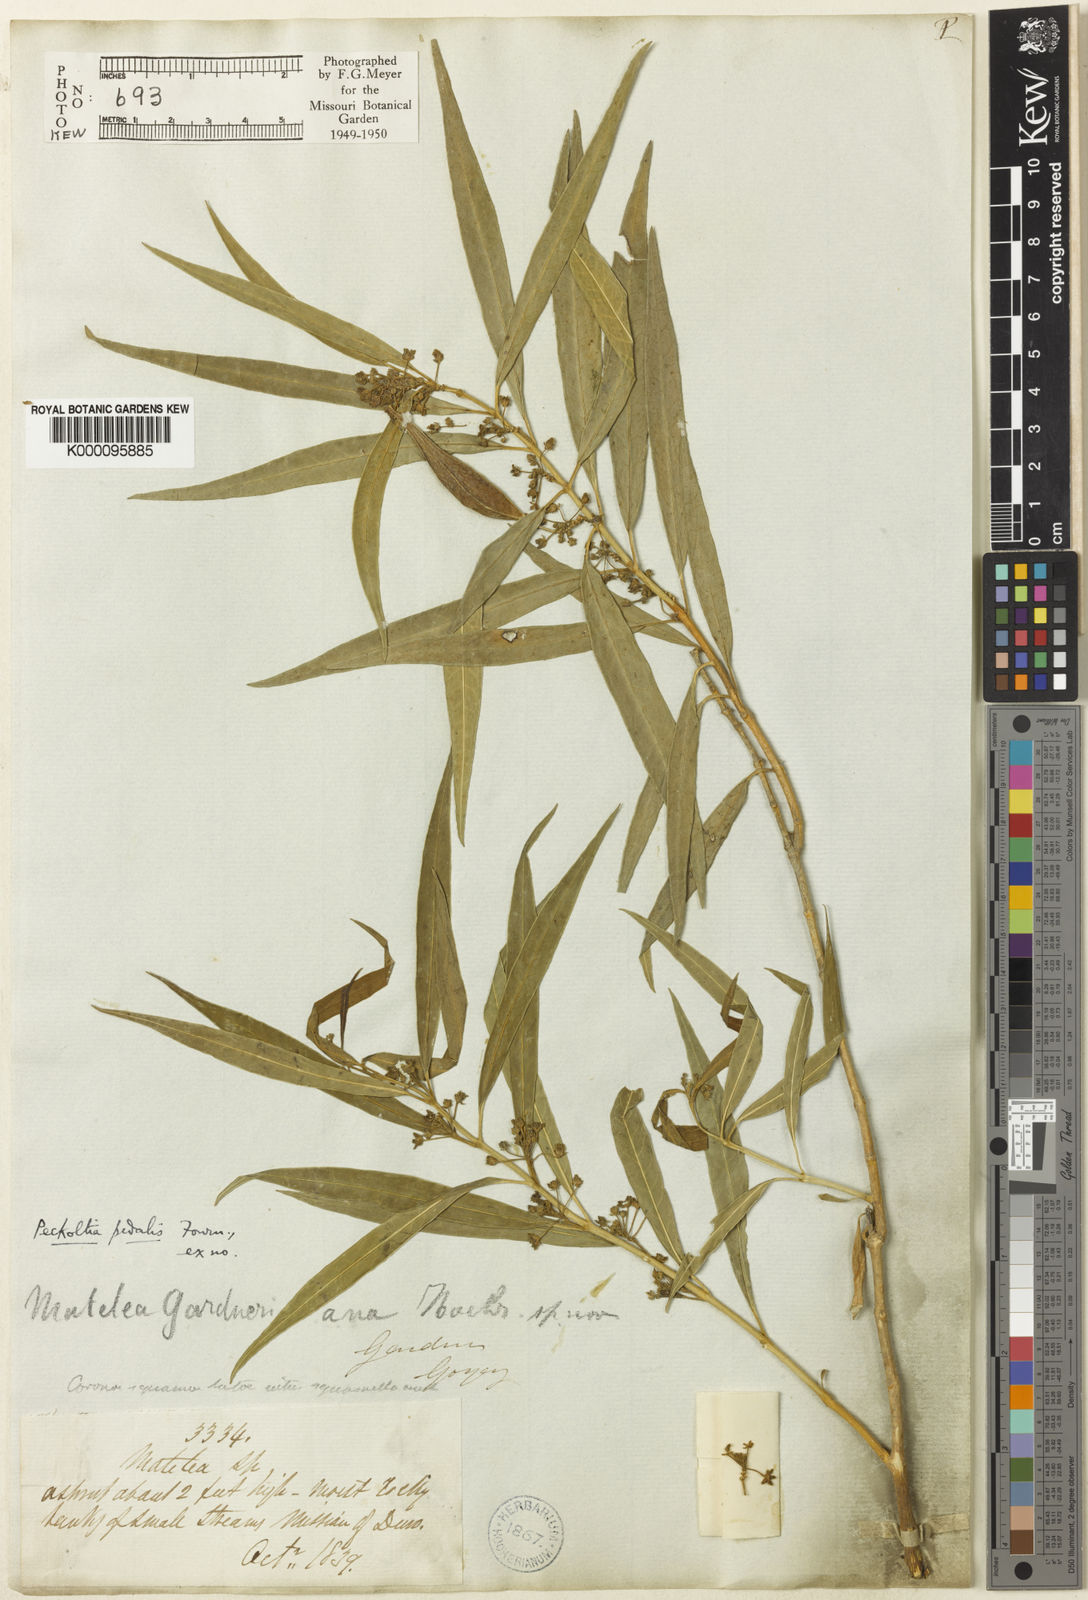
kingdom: Plantae
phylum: Tracheophyta
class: Magnoliopsida
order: Gentianales
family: Apocynaceae
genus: Matelea
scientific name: Matelea pedalis
